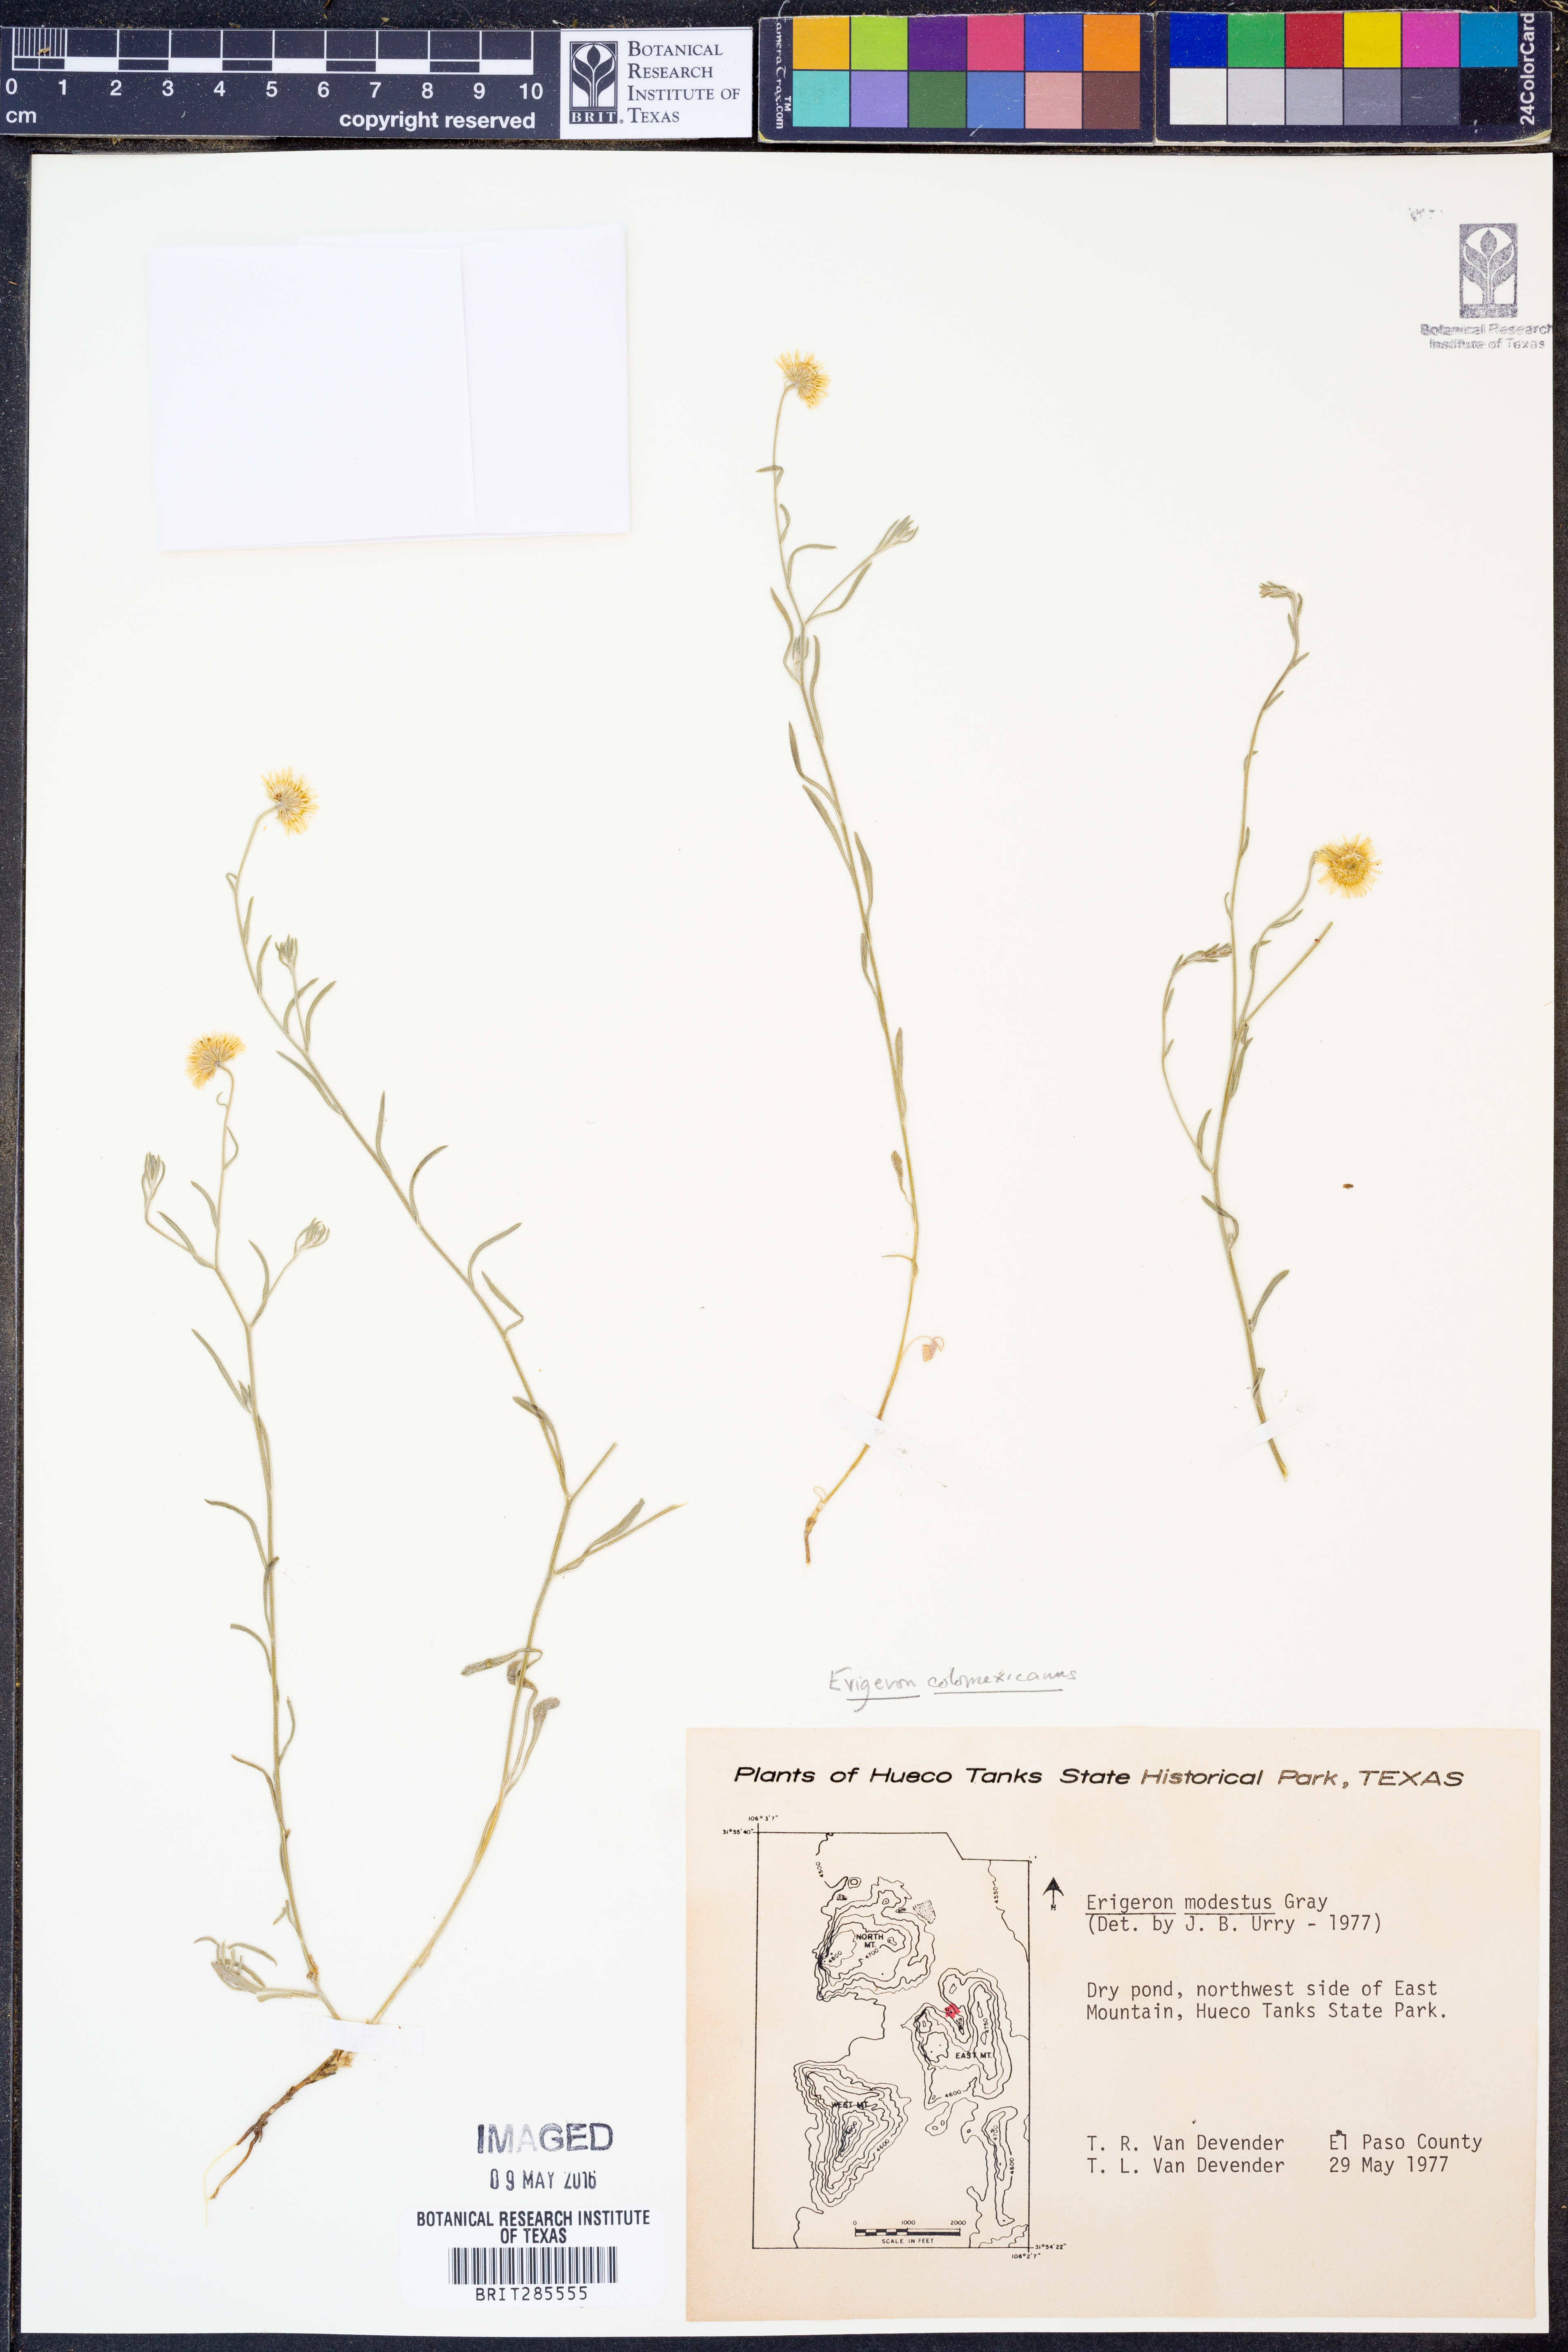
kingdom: Plantae
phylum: Tracheophyta
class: Magnoliopsida
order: Asterales
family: Asteraceae
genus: Erigeron
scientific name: Erigeron tracyi
